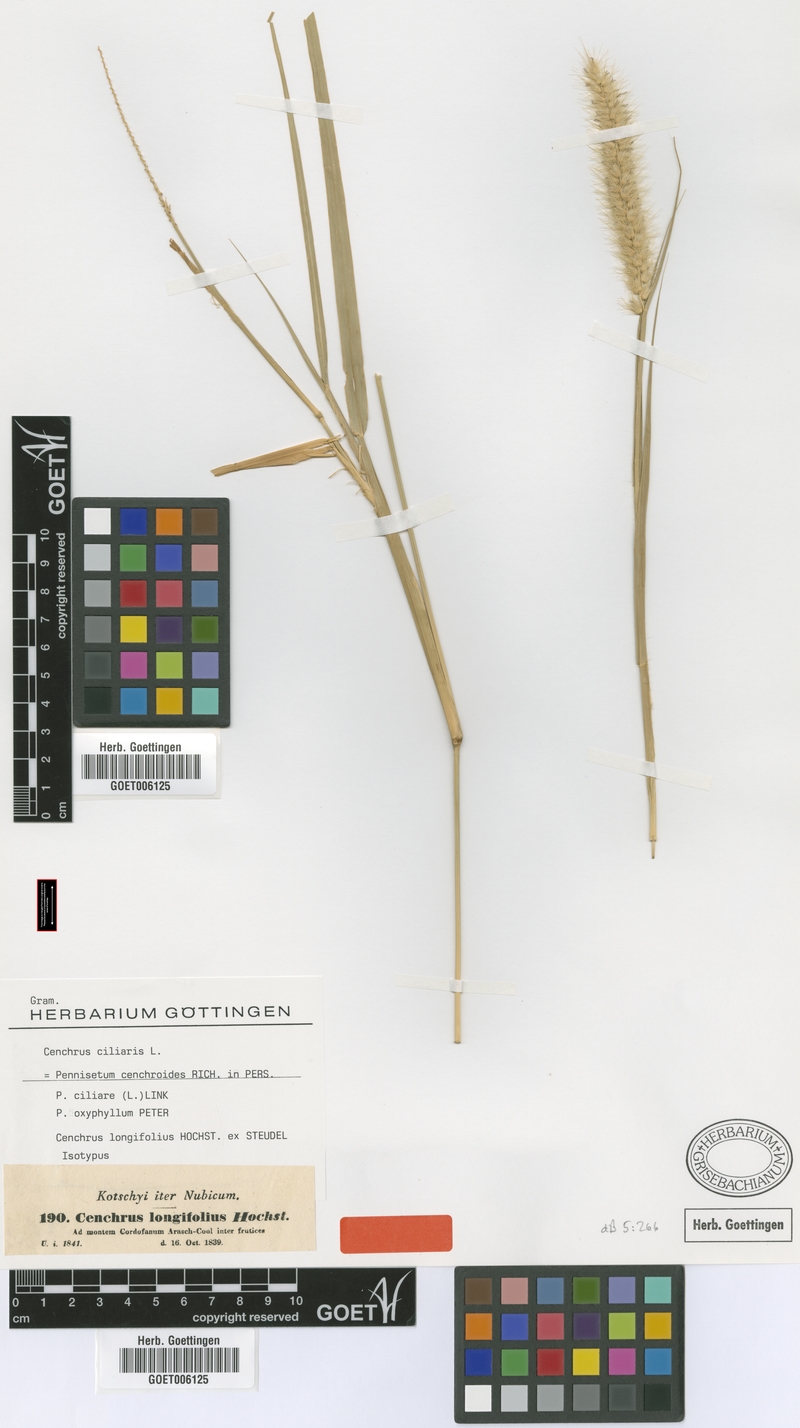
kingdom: Plantae
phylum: Tracheophyta
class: Liliopsida
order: Poales
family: Poaceae
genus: Cenchrus
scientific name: Cenchrus ciliaris
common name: Buffelgrass
